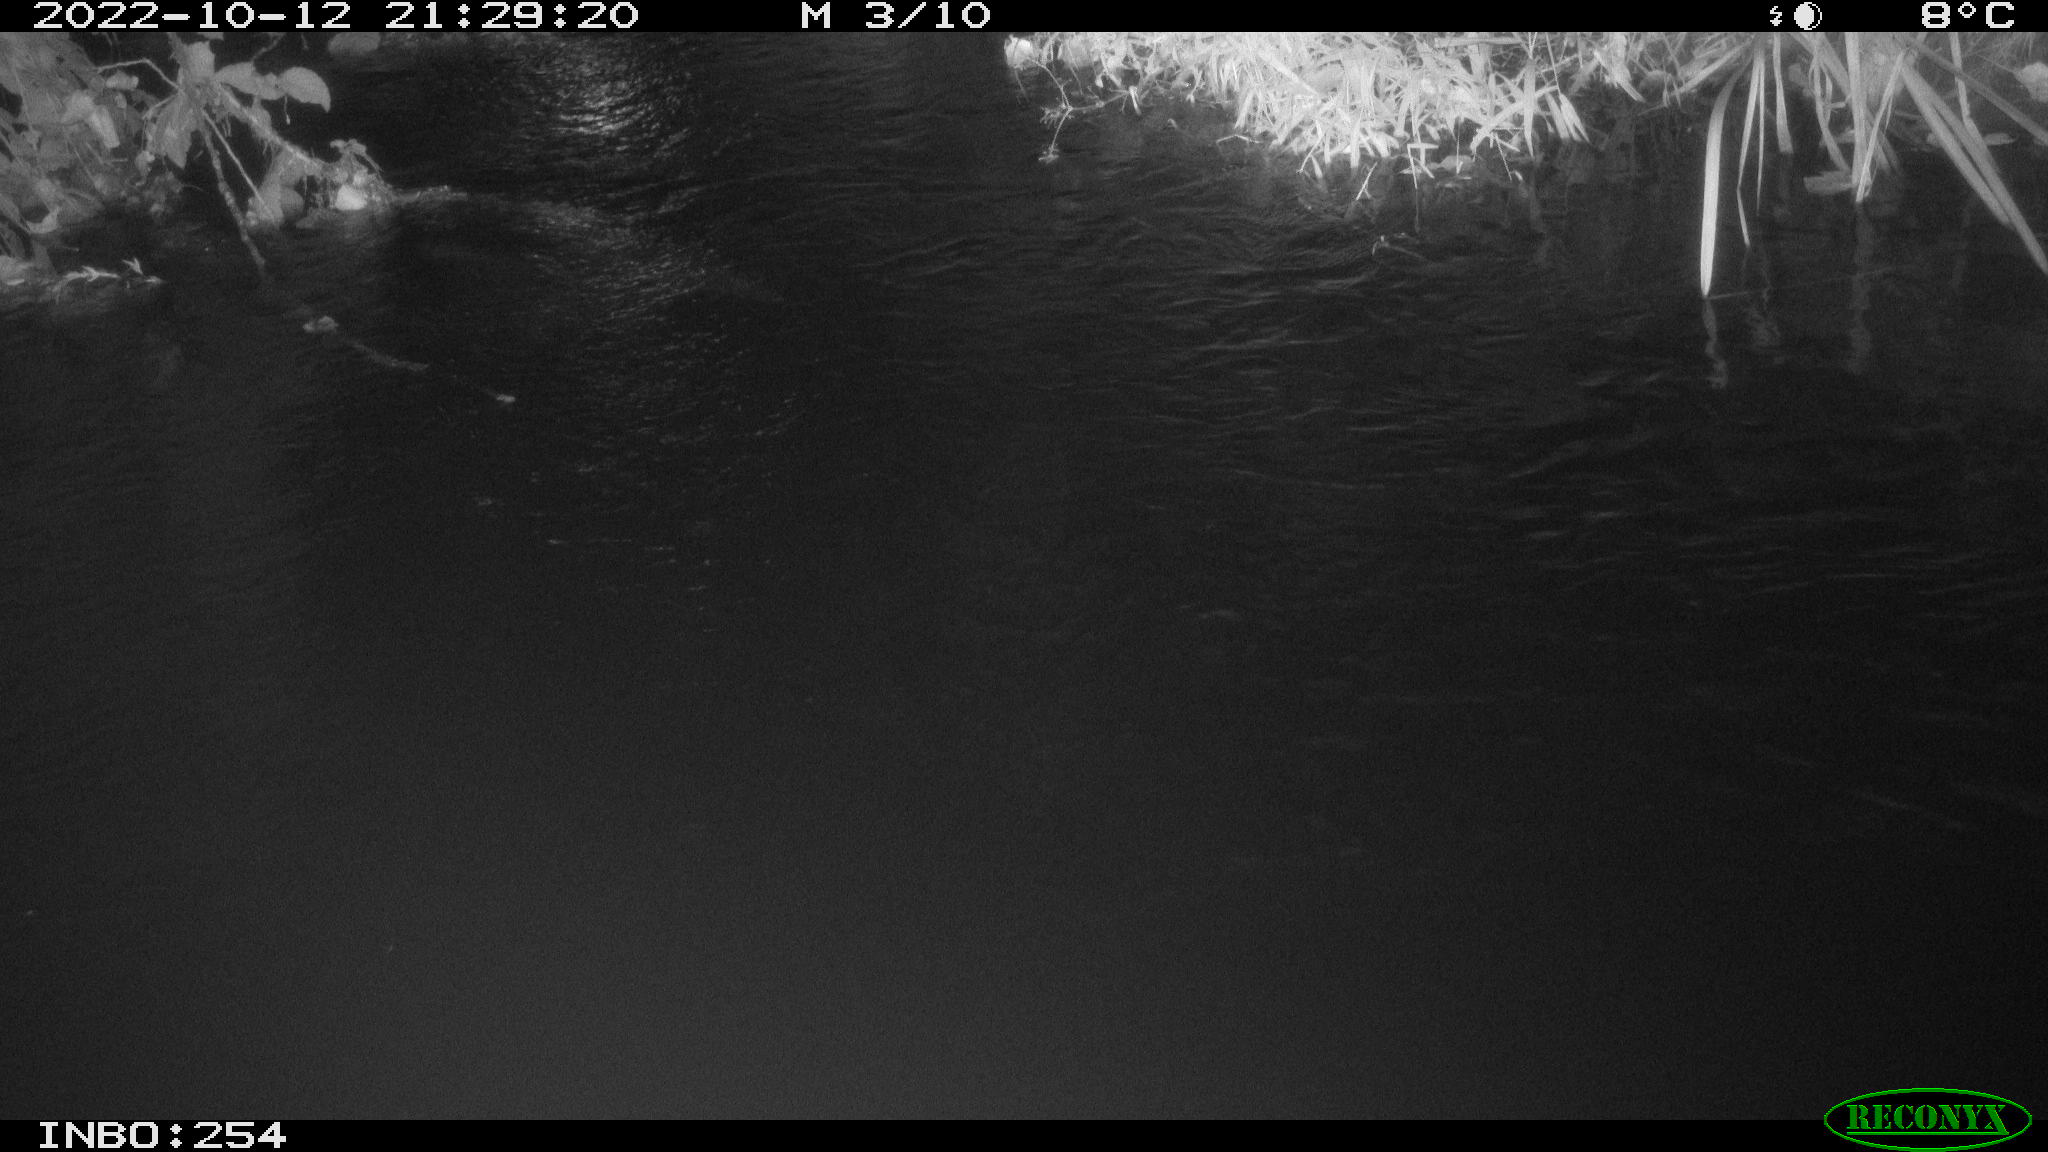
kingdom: Animalia
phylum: Chordata
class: Aves
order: Anseriformes
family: Anatidae
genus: Anas
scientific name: Anas
